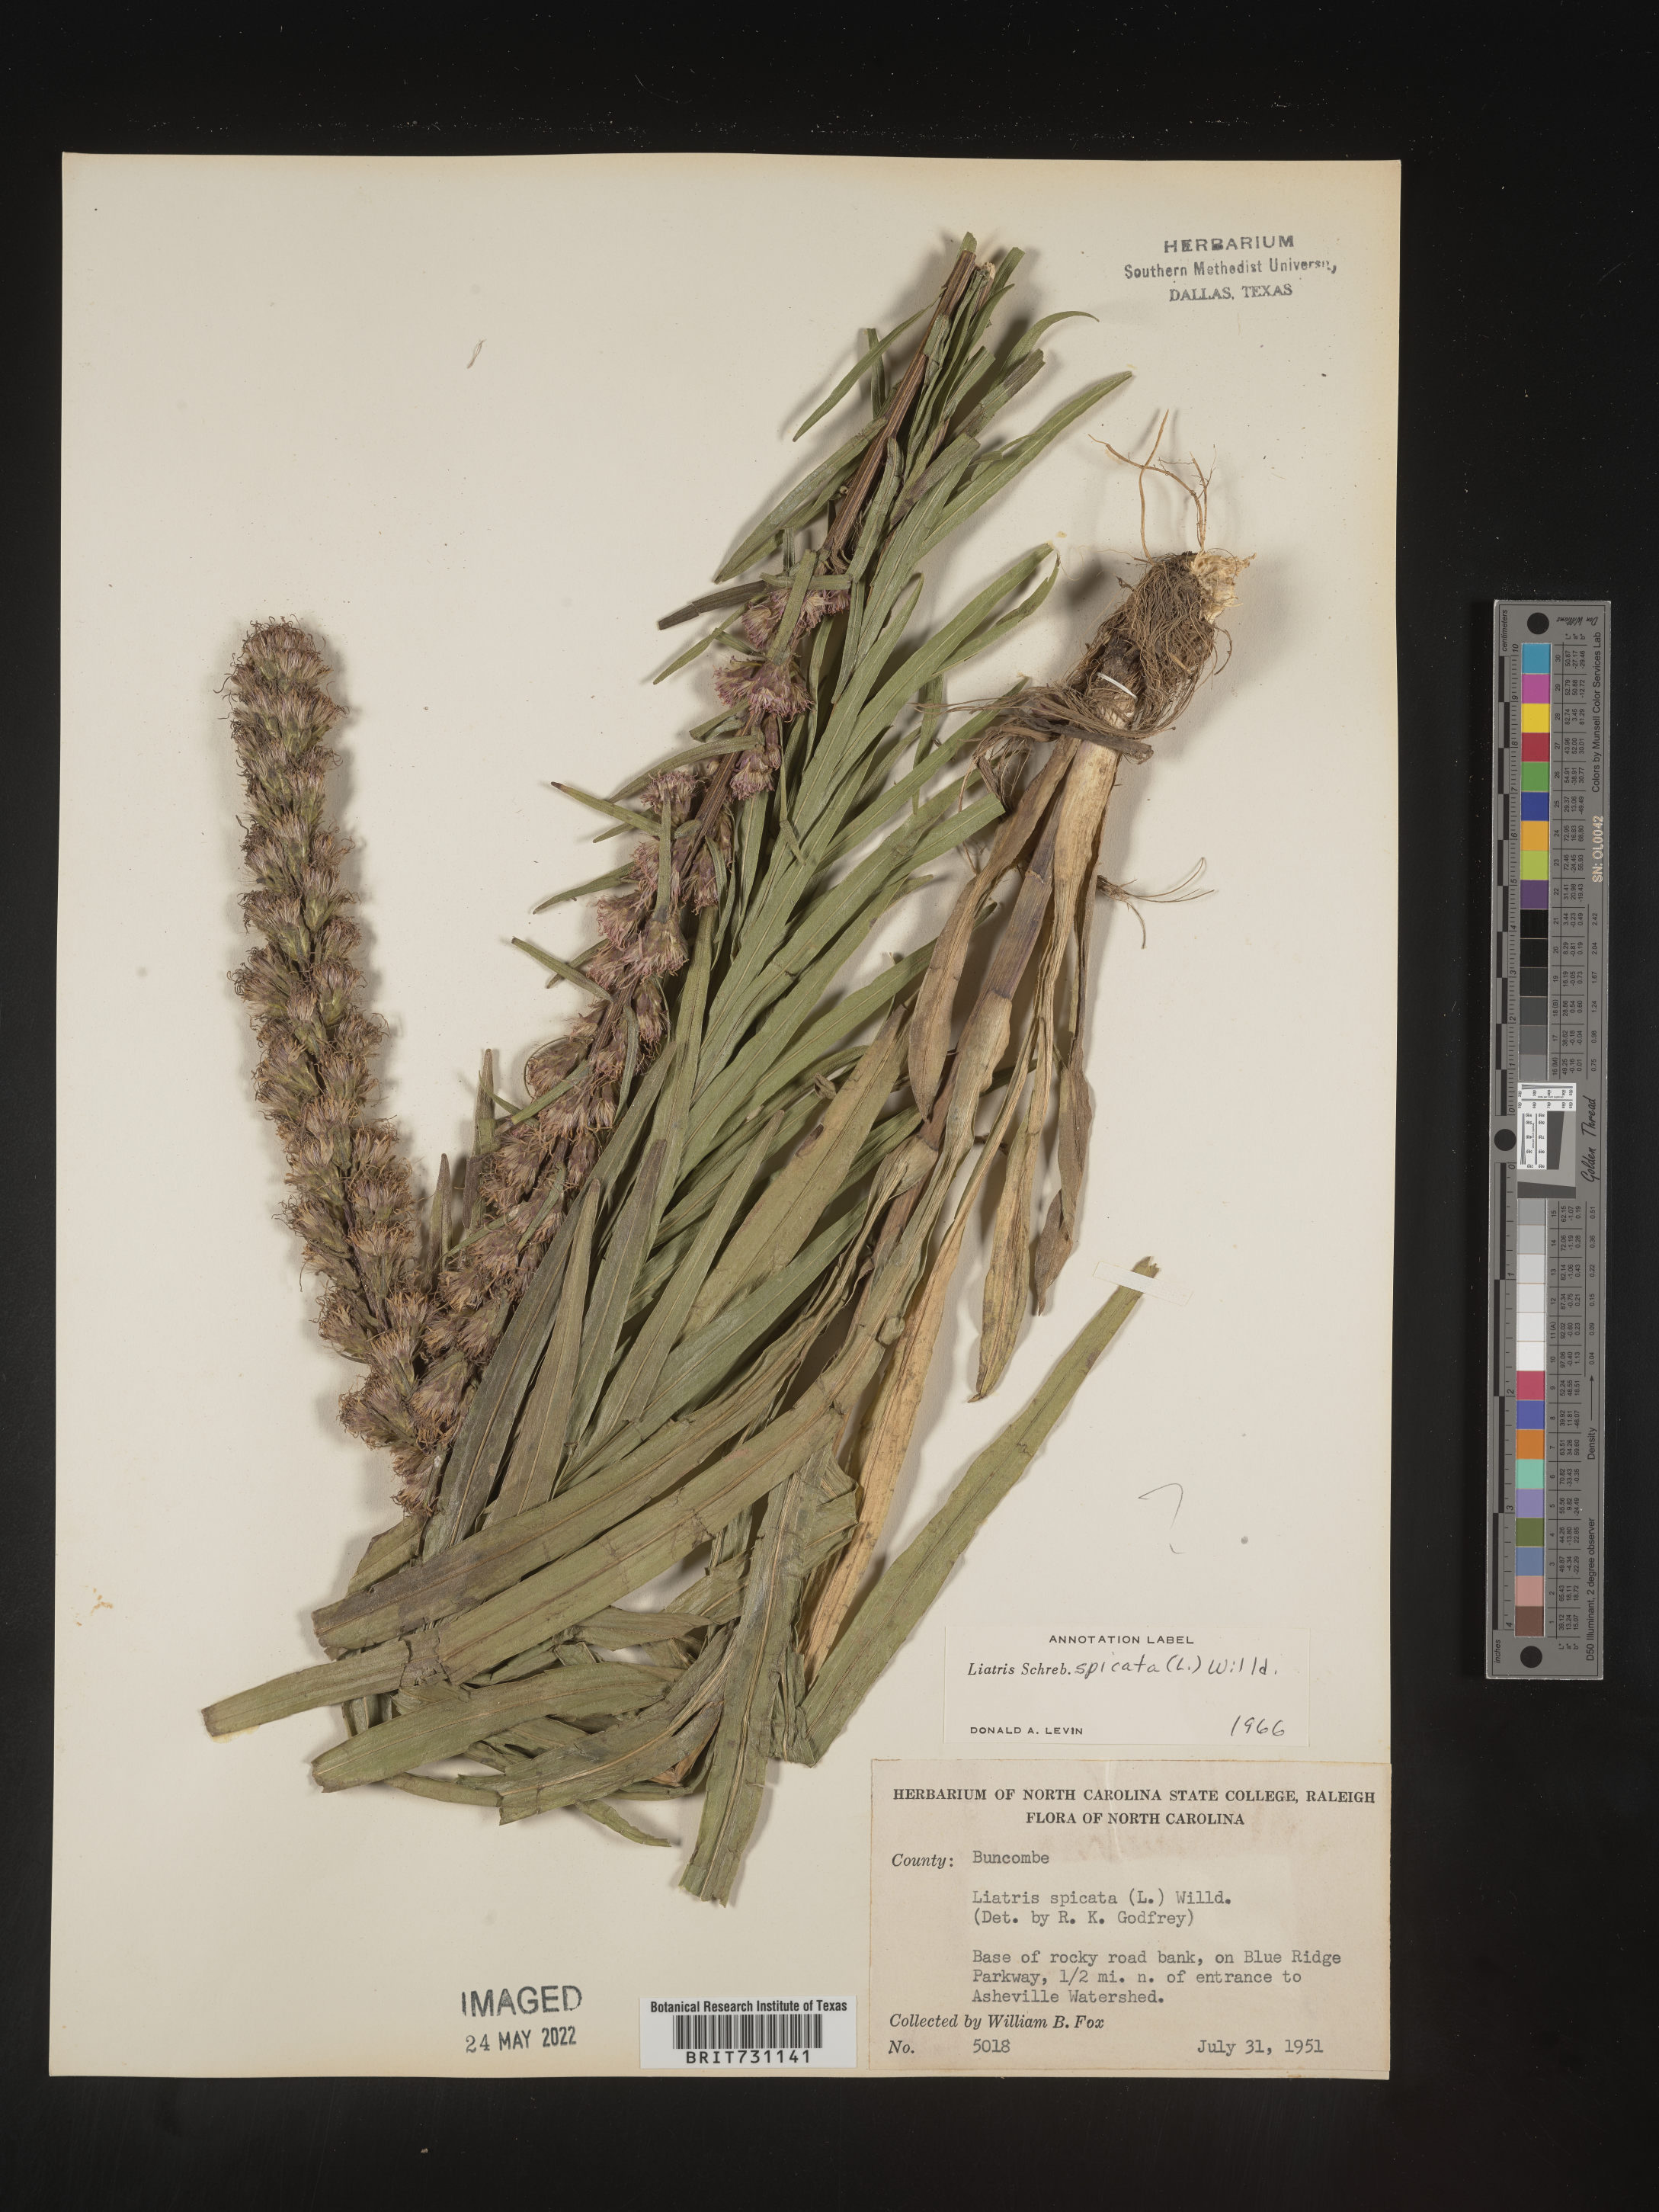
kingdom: Plantae
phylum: Tracheophyta
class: Magnoliopsida
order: Asterales
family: Asteraceae
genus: Liatris
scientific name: Liatris spicata
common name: Florist gayfeather
